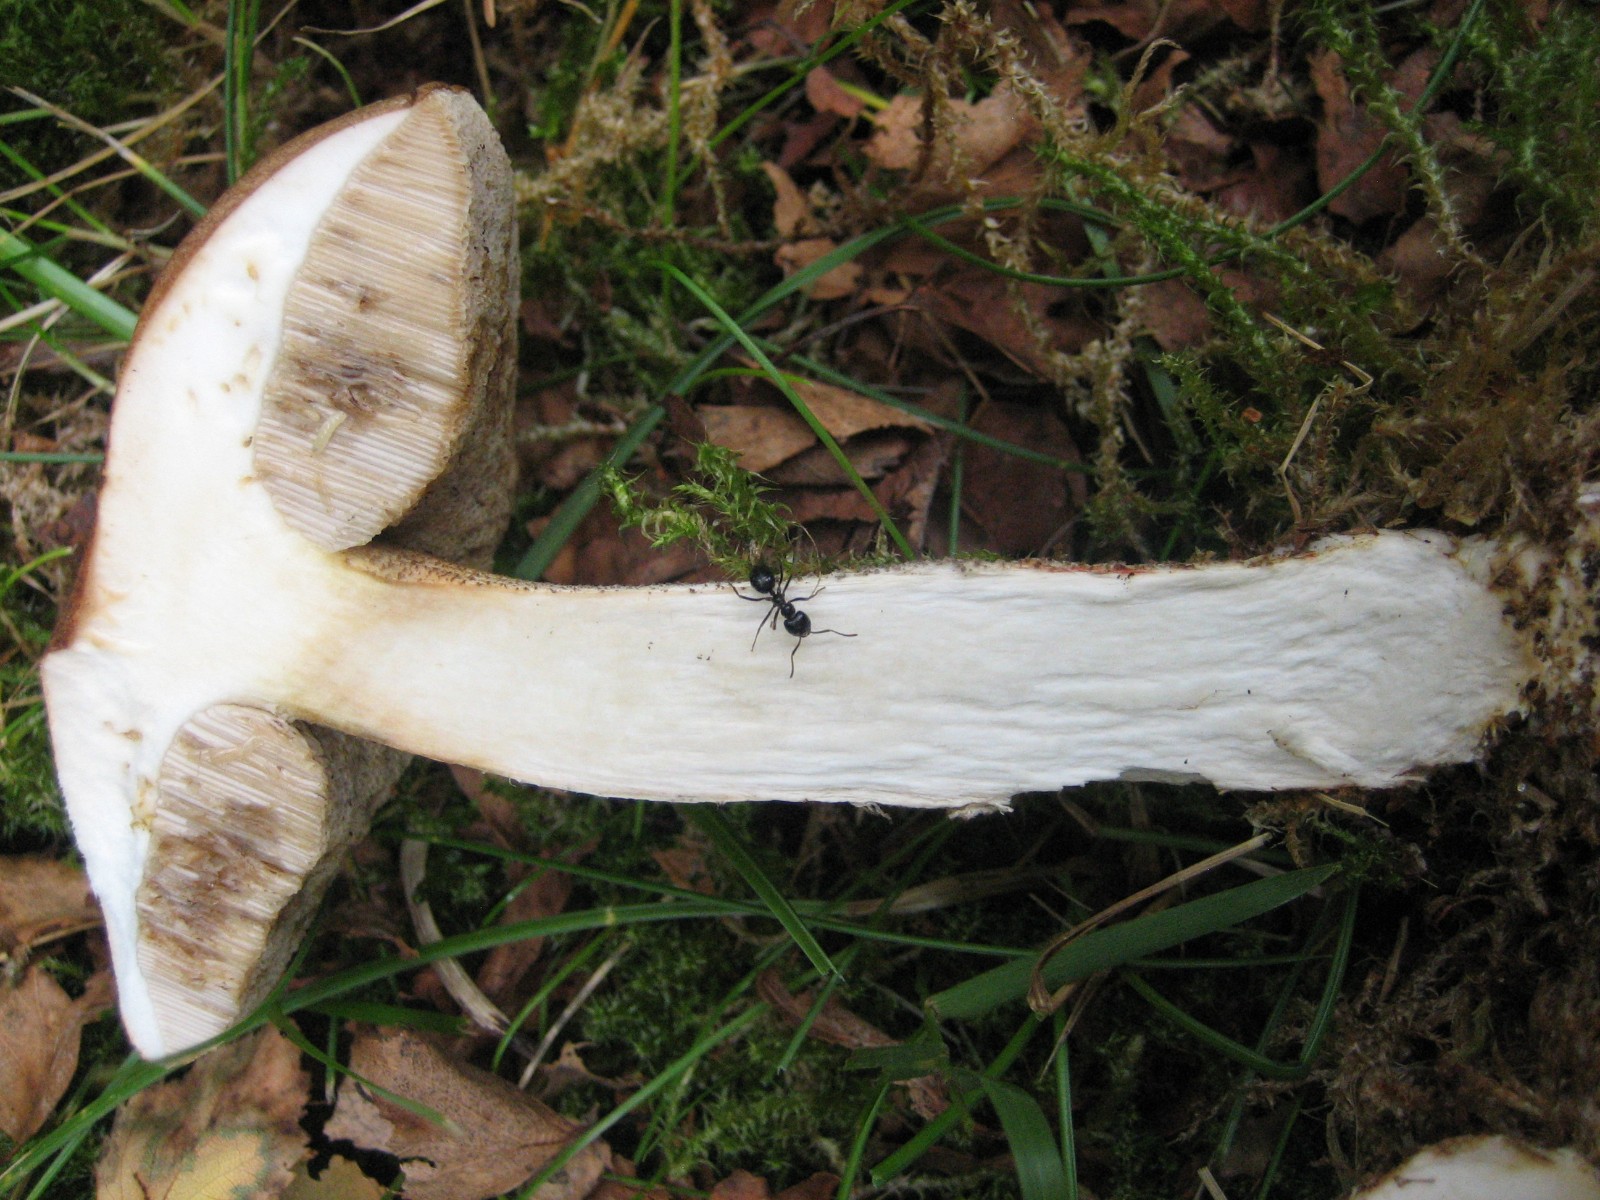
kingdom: Fungi
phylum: Basidiomycota
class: Agaricomycetes
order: Boletales
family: Boletaceae
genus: Leccinum
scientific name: Leccinum scabrum
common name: brun skælrørhat
